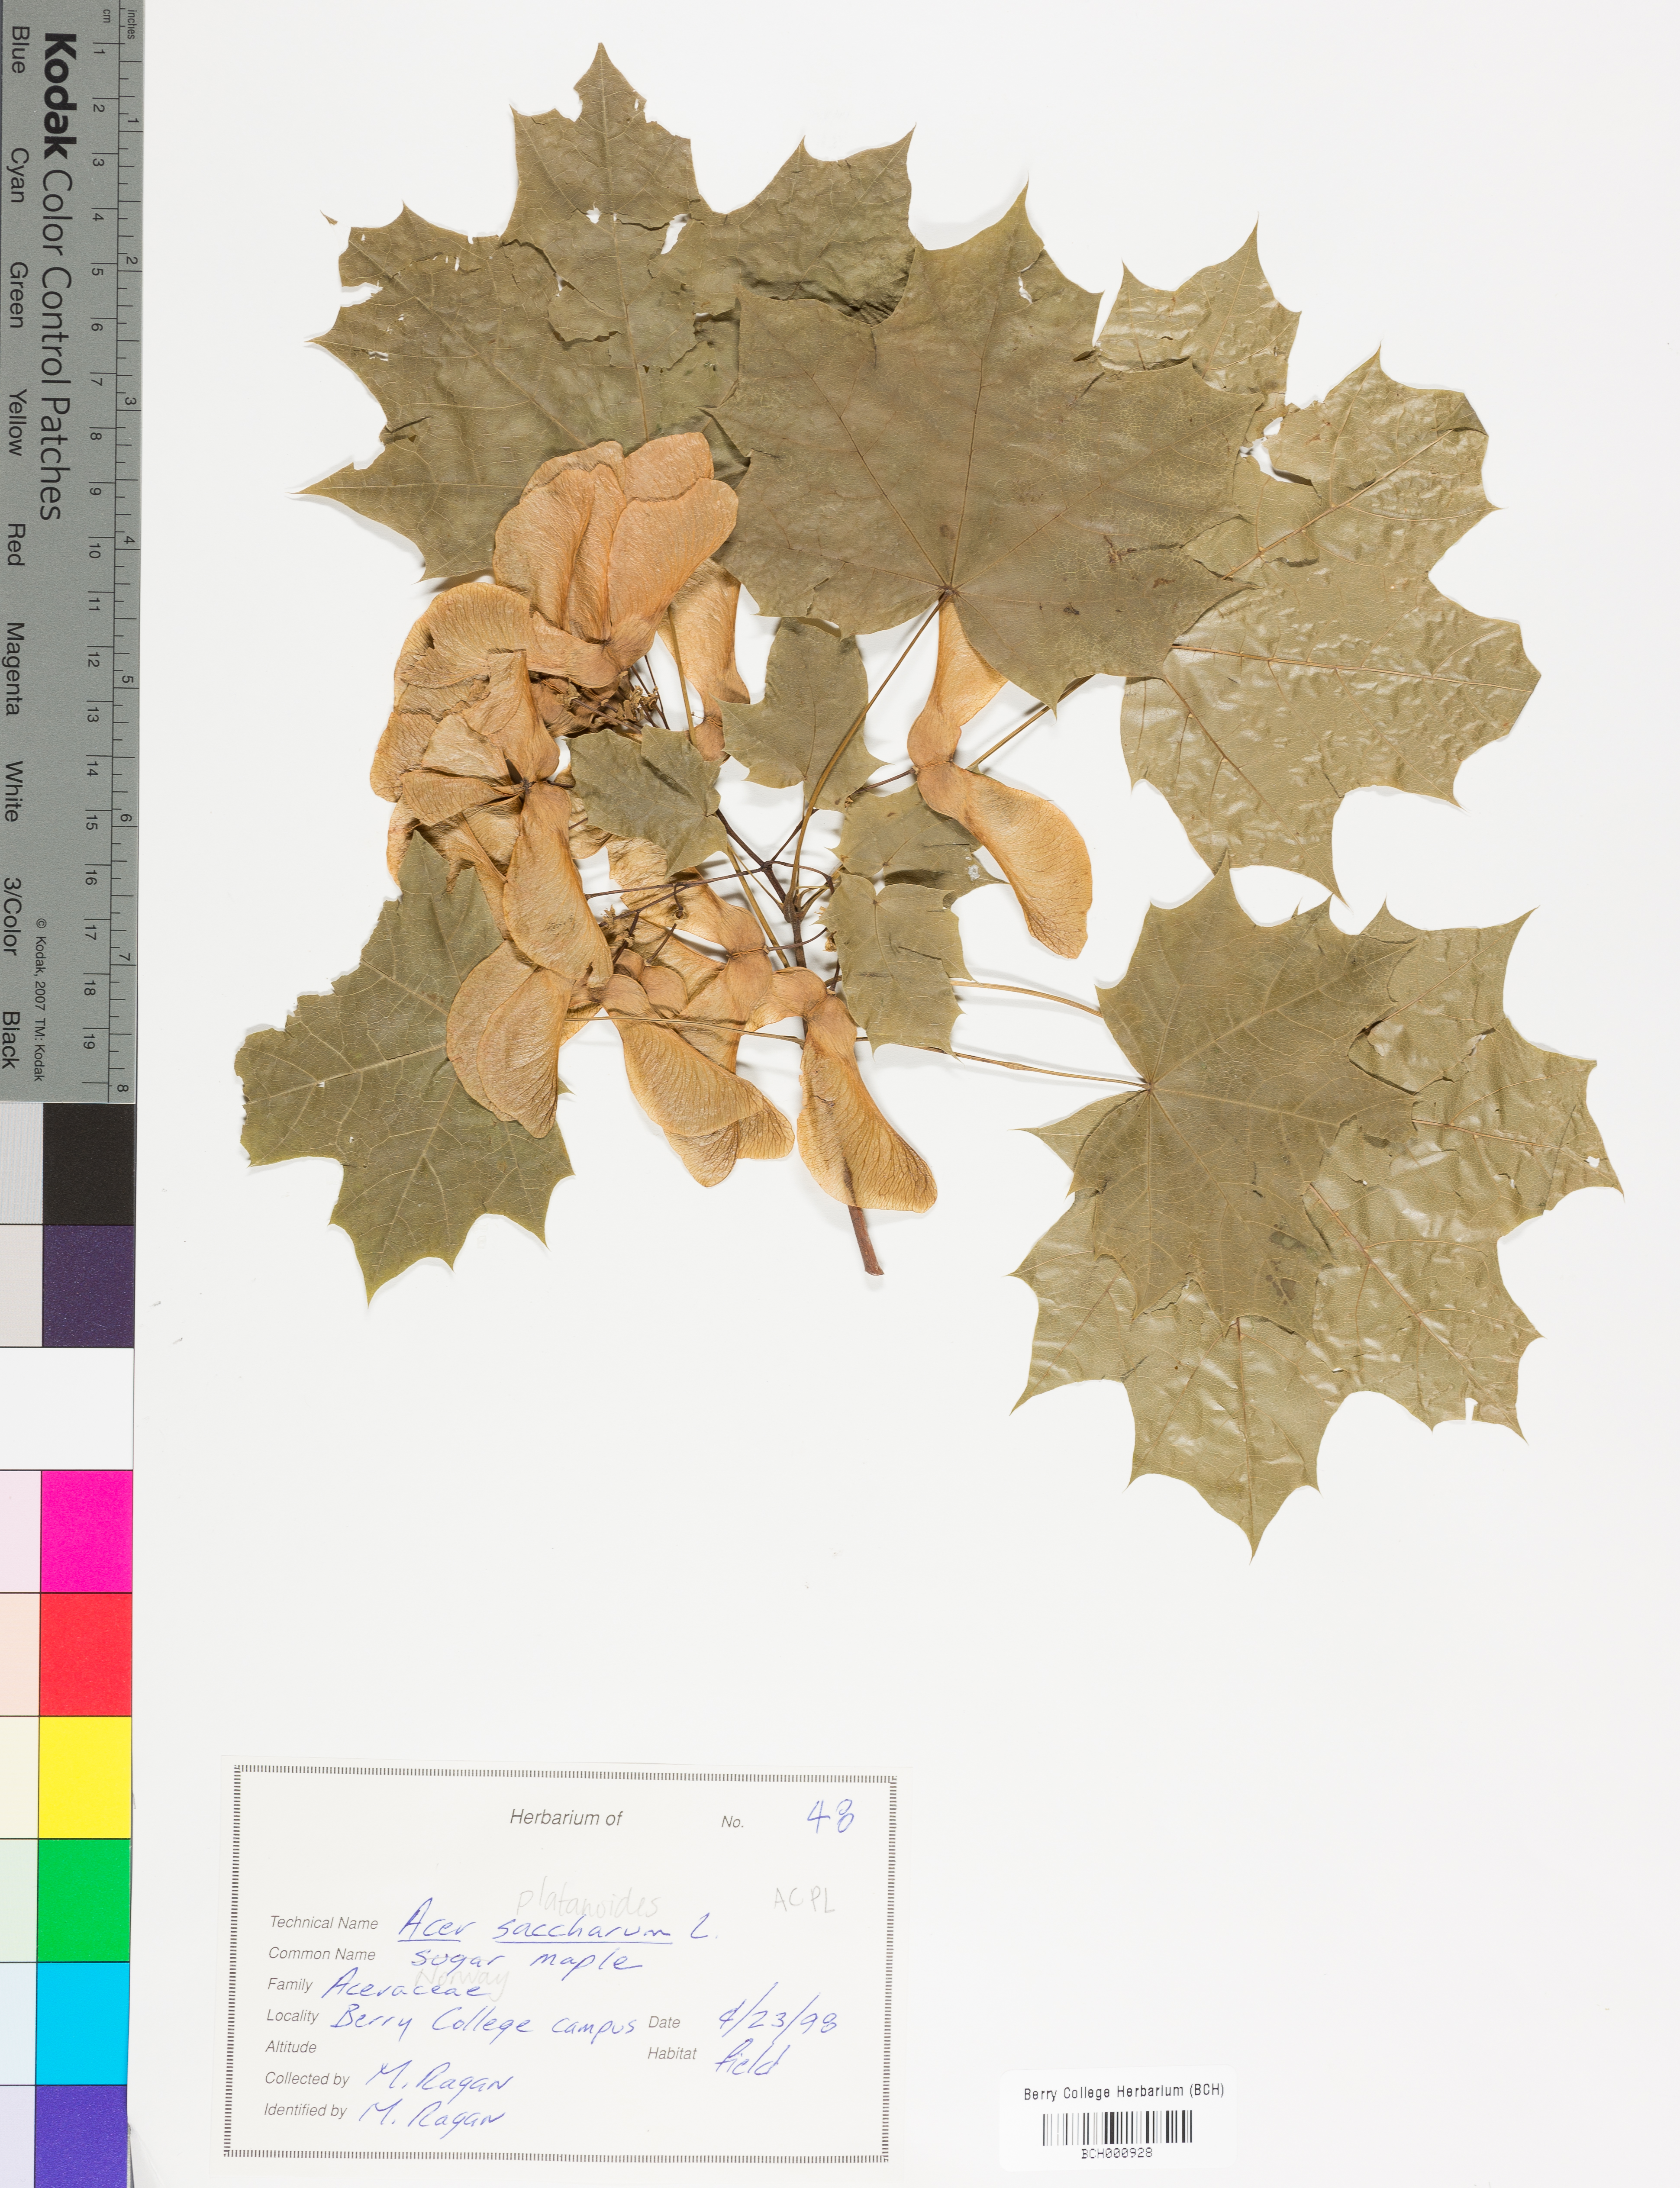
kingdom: Plantae
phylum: Tracheophyta
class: Magnoliopsida
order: Sapindales
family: Sapindaceae
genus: Acer
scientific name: Acer platanoides
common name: Norway maple
